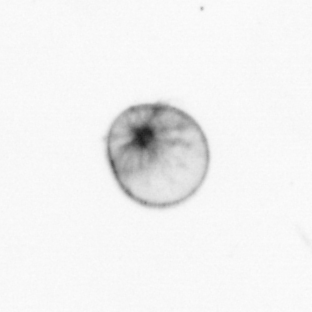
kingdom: Chromista
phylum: Myzozoa
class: Dinophyceae
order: Noctilucales
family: Noctilucaceae
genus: Noctiluca
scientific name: Noctiluca scintillans
